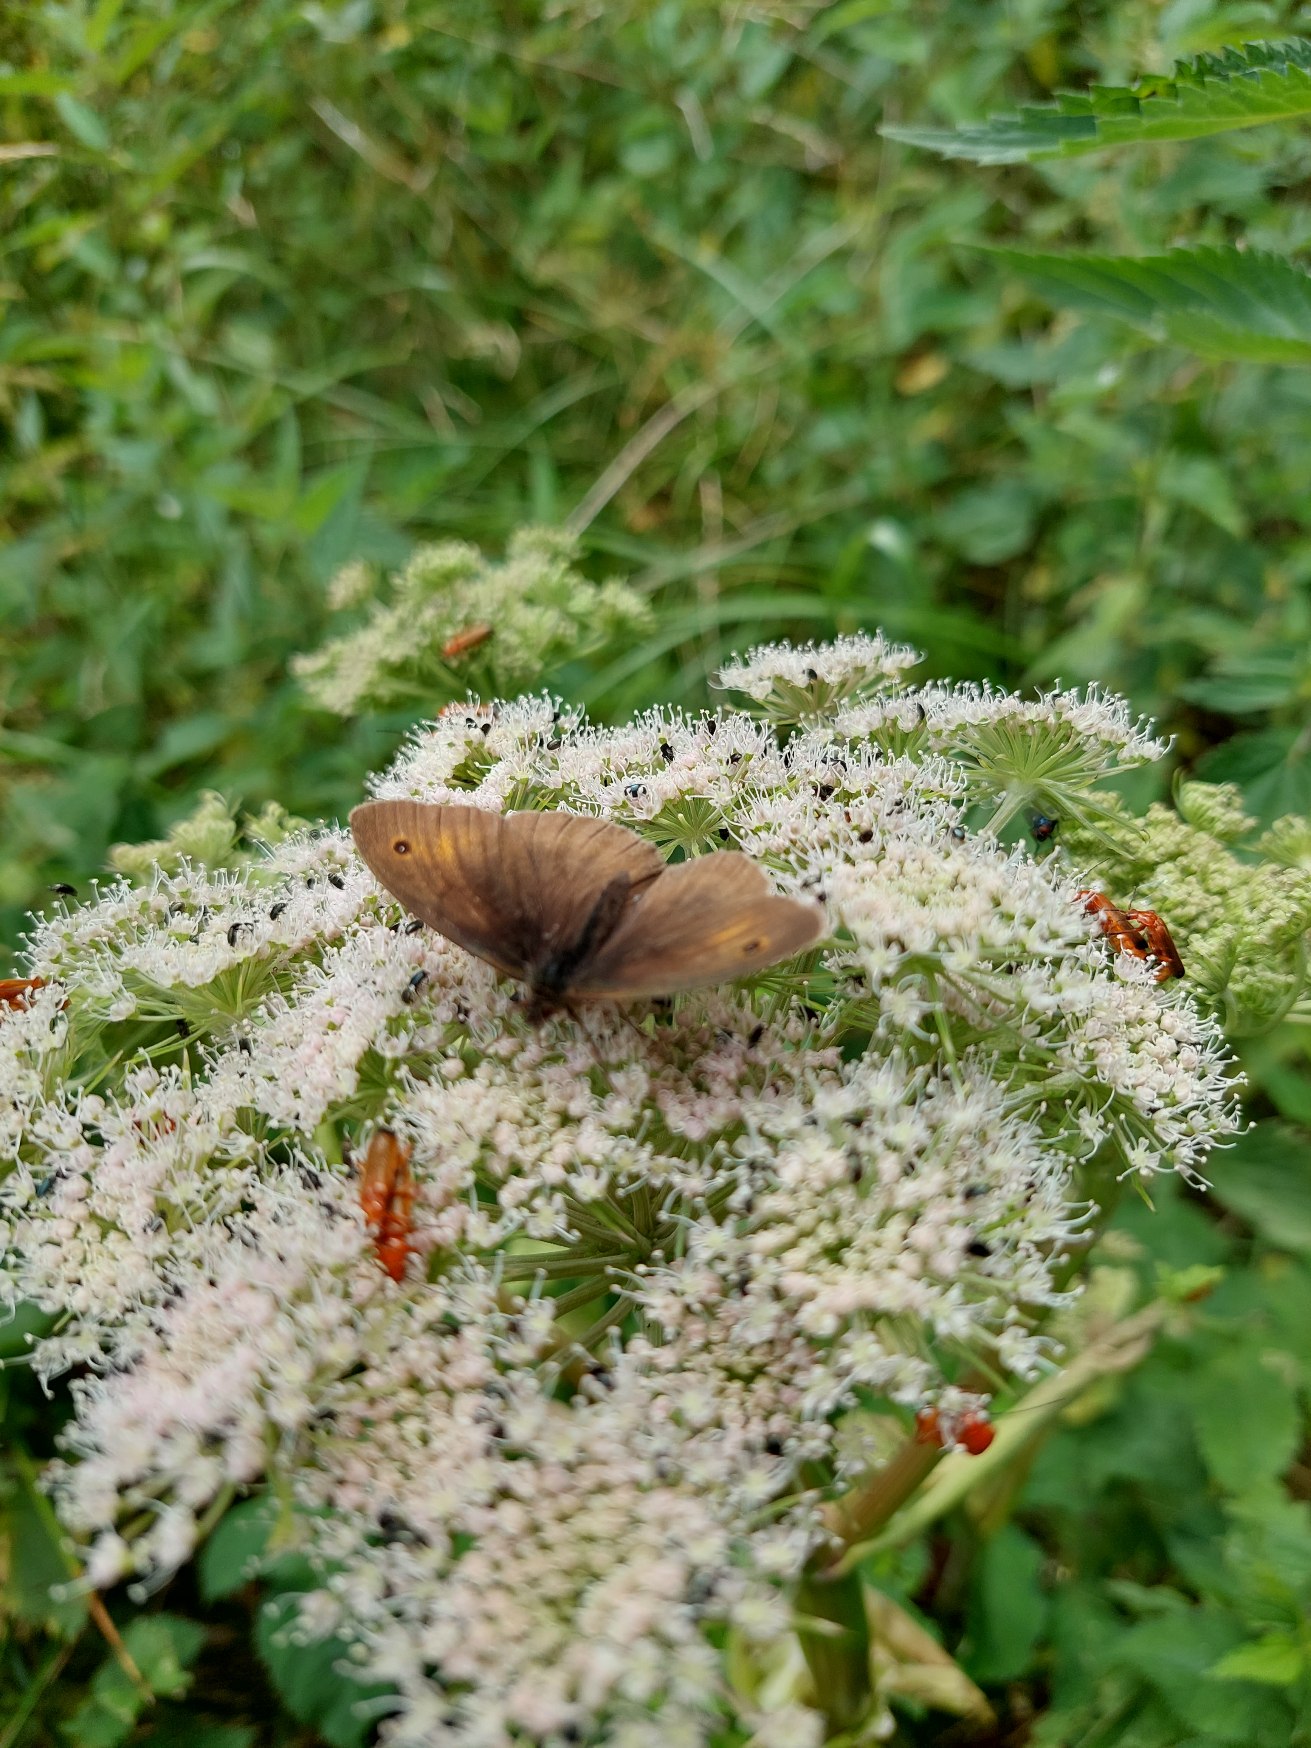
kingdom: Animalia
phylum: Arthropoda
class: Insecta
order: Lepidoptera
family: Nymphalidae
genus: Maniola
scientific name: Maniola jurtina
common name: Græsrandøje
